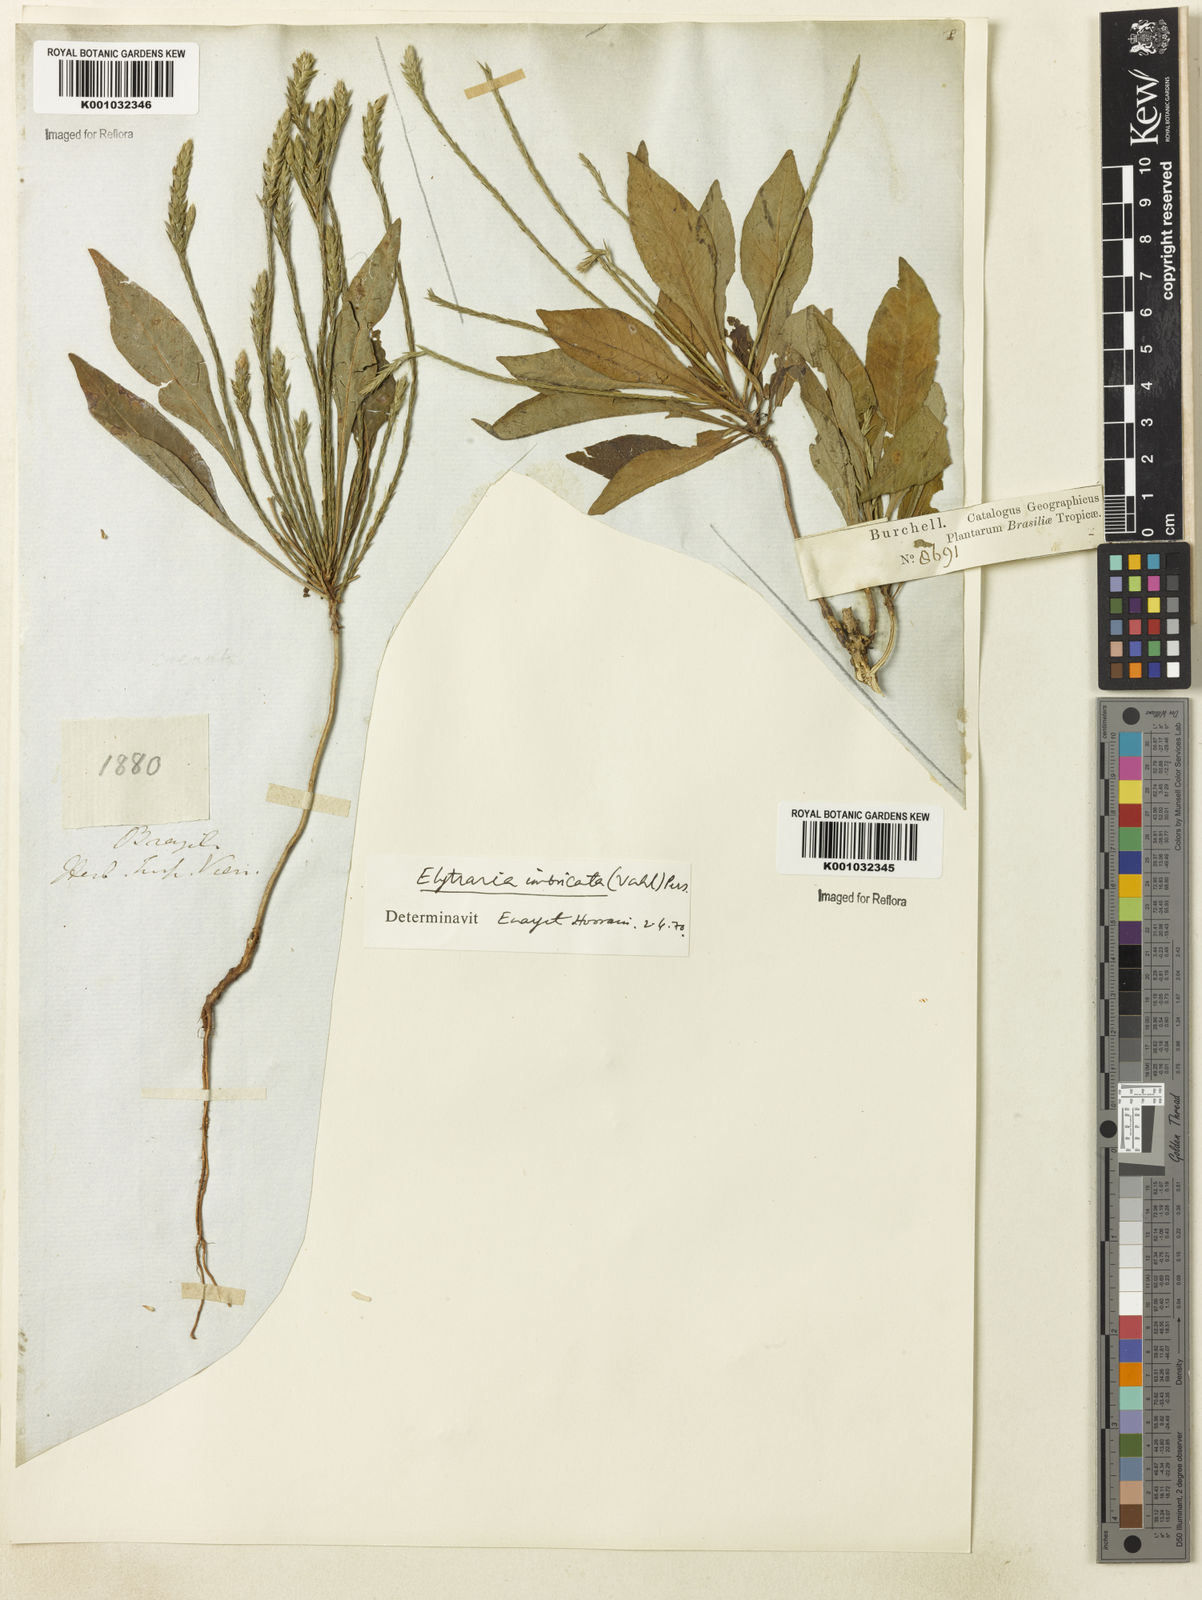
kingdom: Plantae
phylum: Tracheophyta
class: Magnoliopsida
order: Lamiales
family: Acanthaceae
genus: Elytraria
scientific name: Elytraria imbricata
